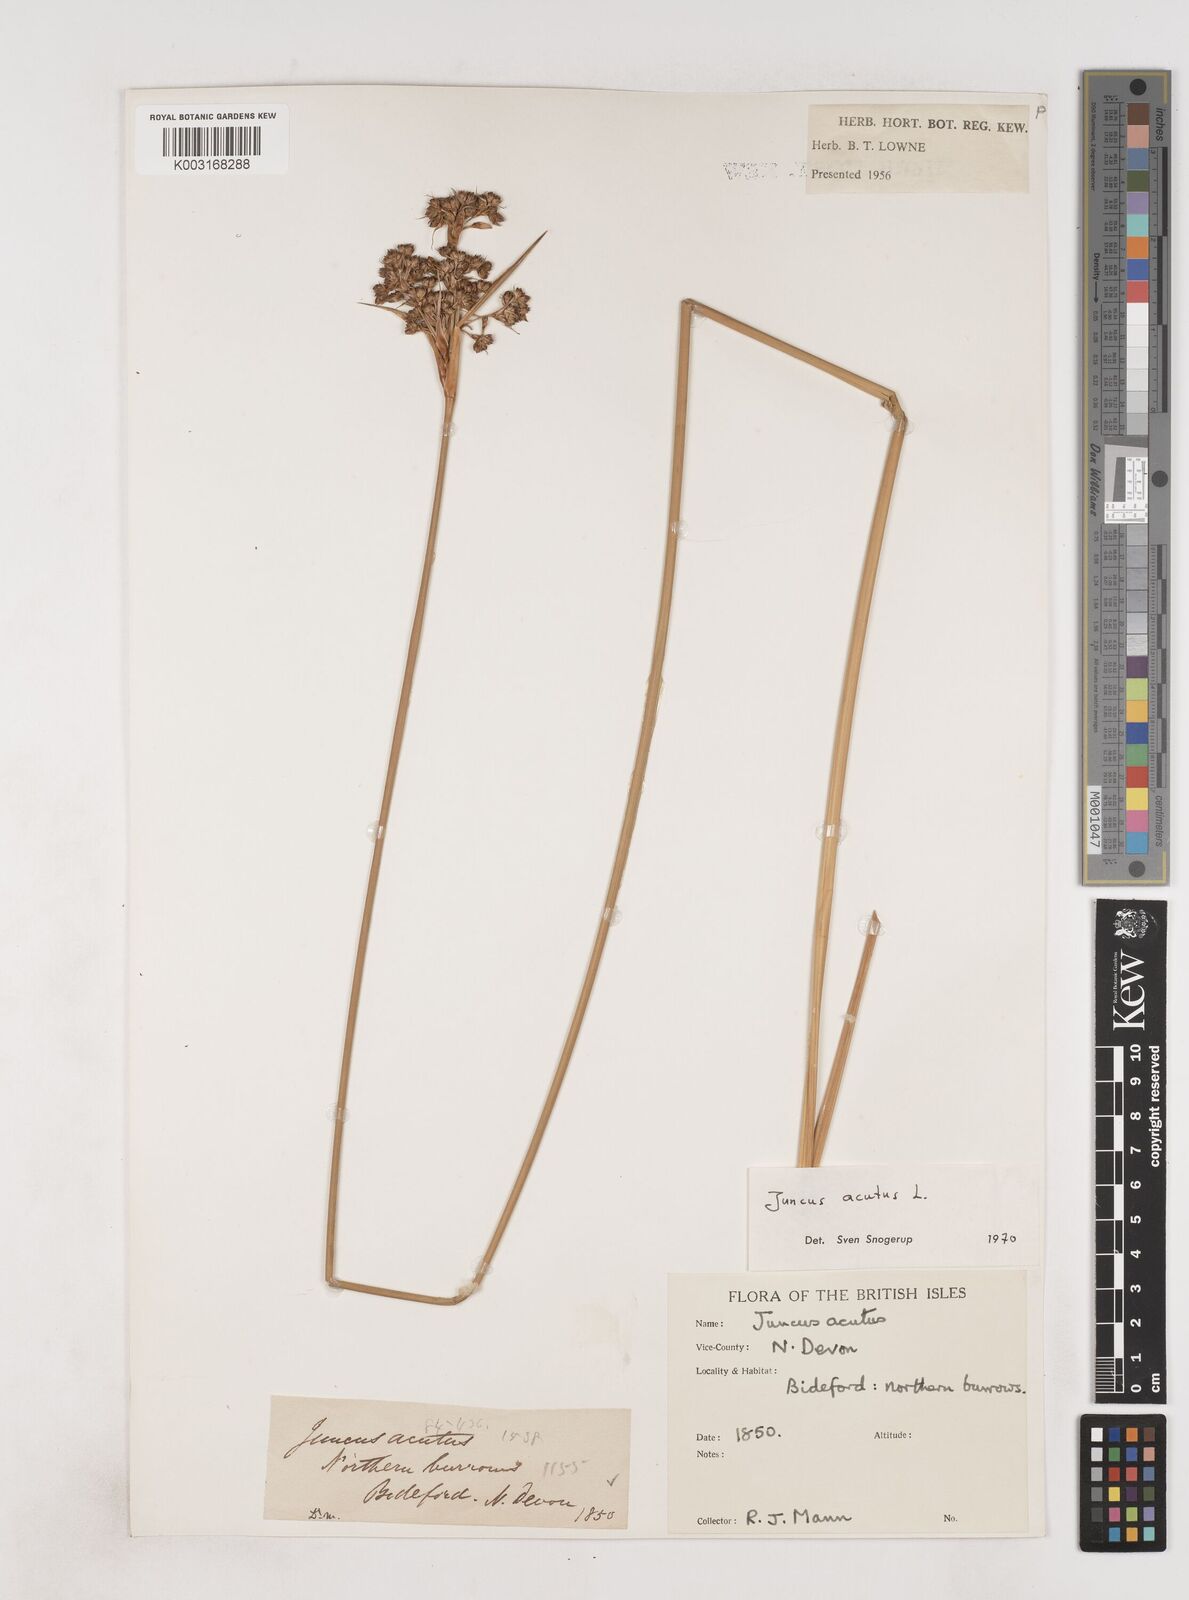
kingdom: Plantae
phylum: Tracheophyta
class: Liliopsida
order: Poales
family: Juncaceae
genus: Juncus
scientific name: Juncus acutus
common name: Sharp rush
